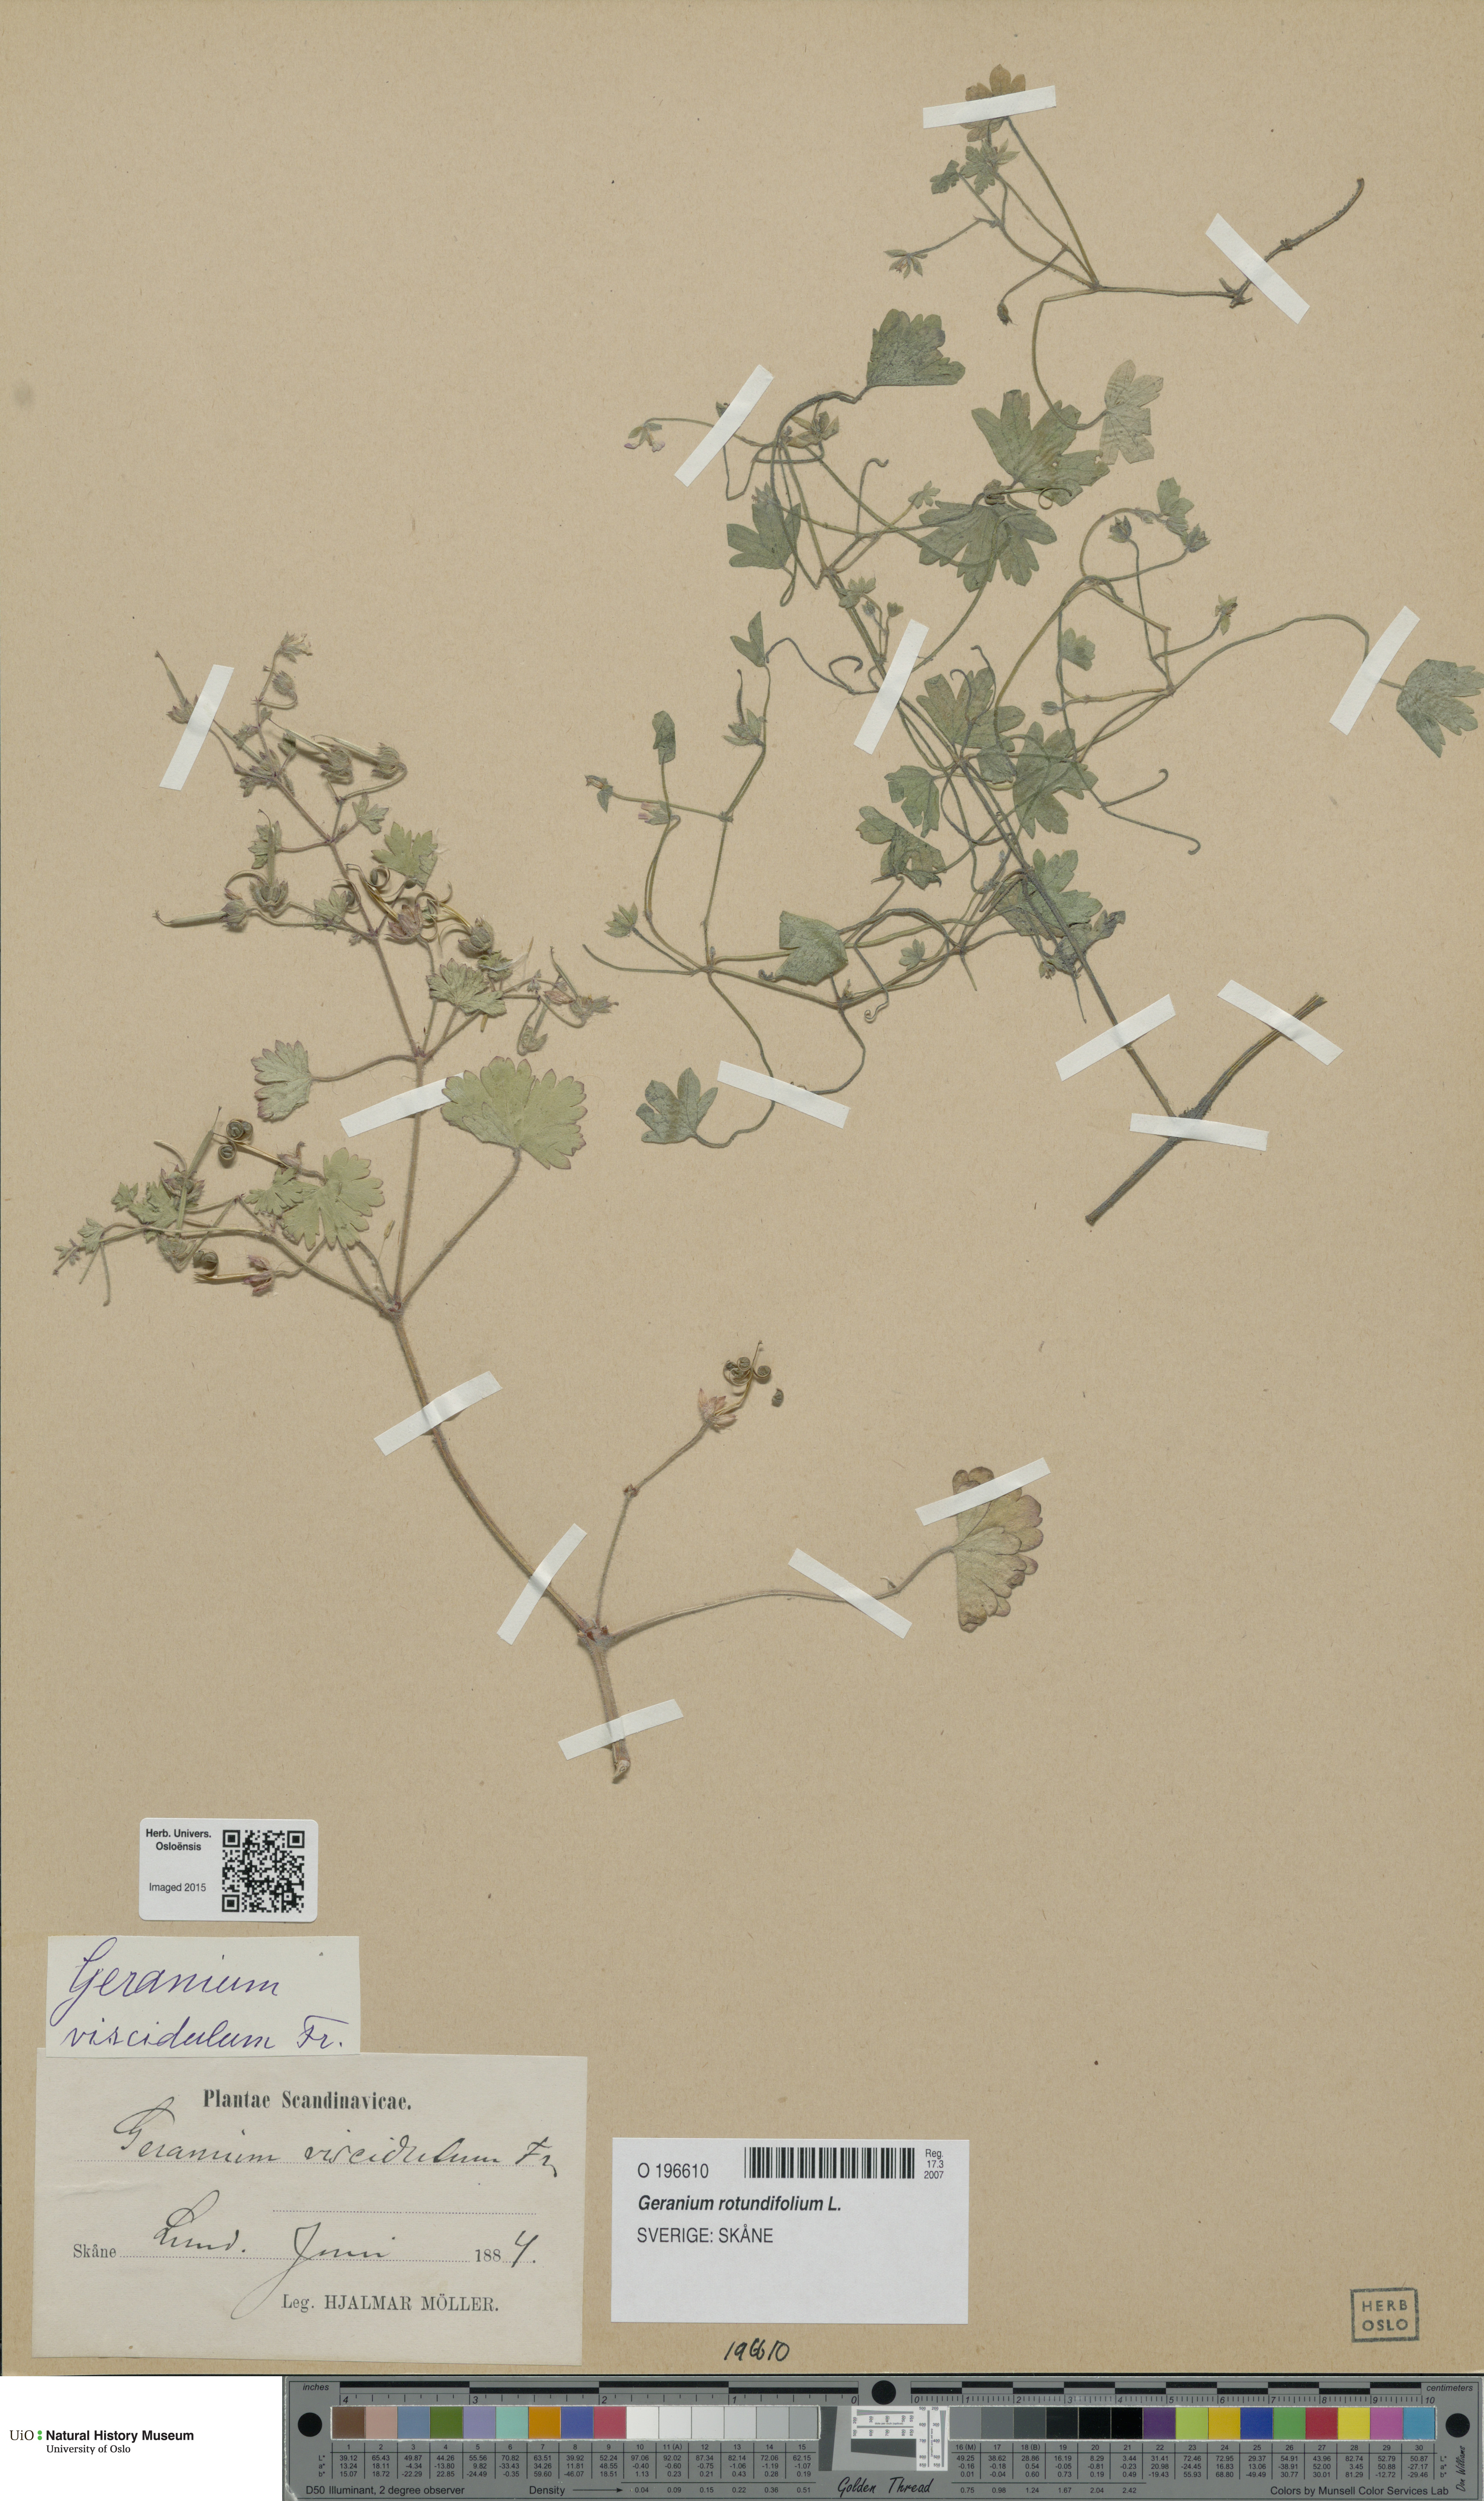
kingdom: Plantae
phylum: Tracheophyta
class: Magnoliopsida
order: Geraniales
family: Geraniaceae
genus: Geranium
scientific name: Geranium rotundifolium
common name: Round-leaved crane's-bill
